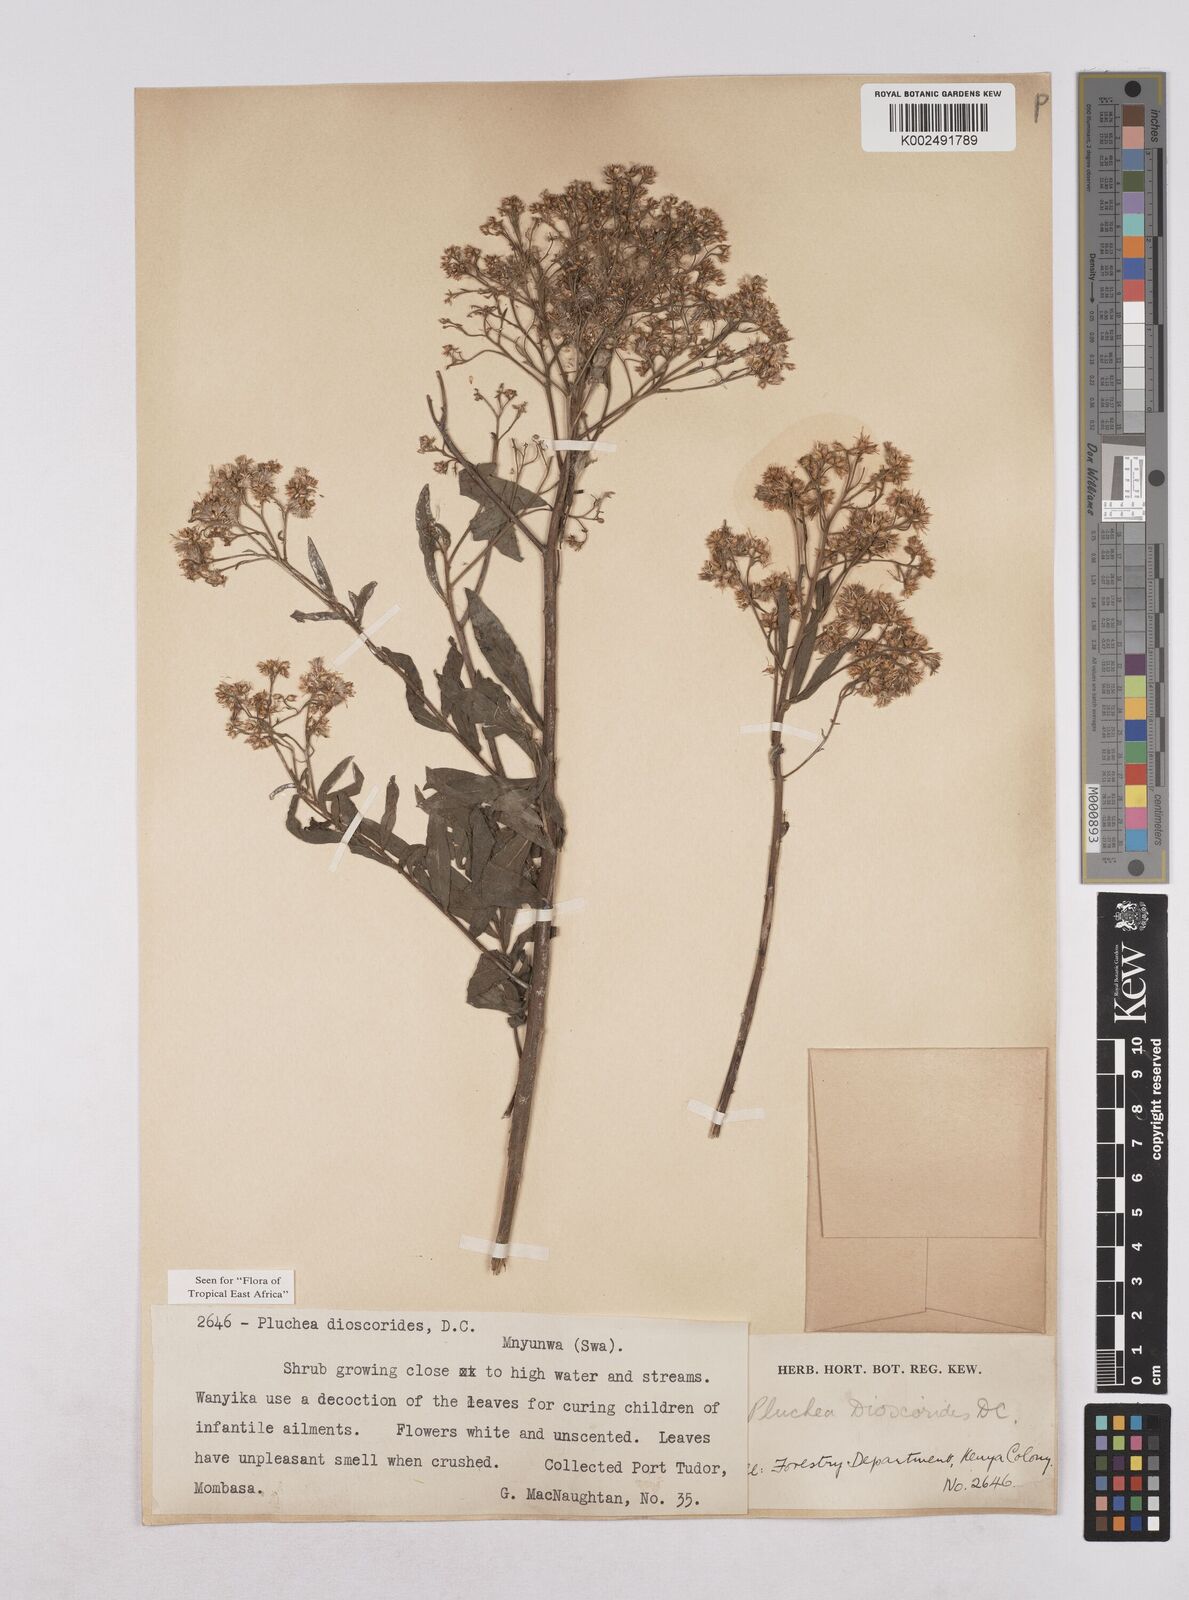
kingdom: Plantae
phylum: Tracheophyta
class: Magnoliopsida
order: Asterales
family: Asteraceae
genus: Pluchea
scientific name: Pluchea dioscoridis
